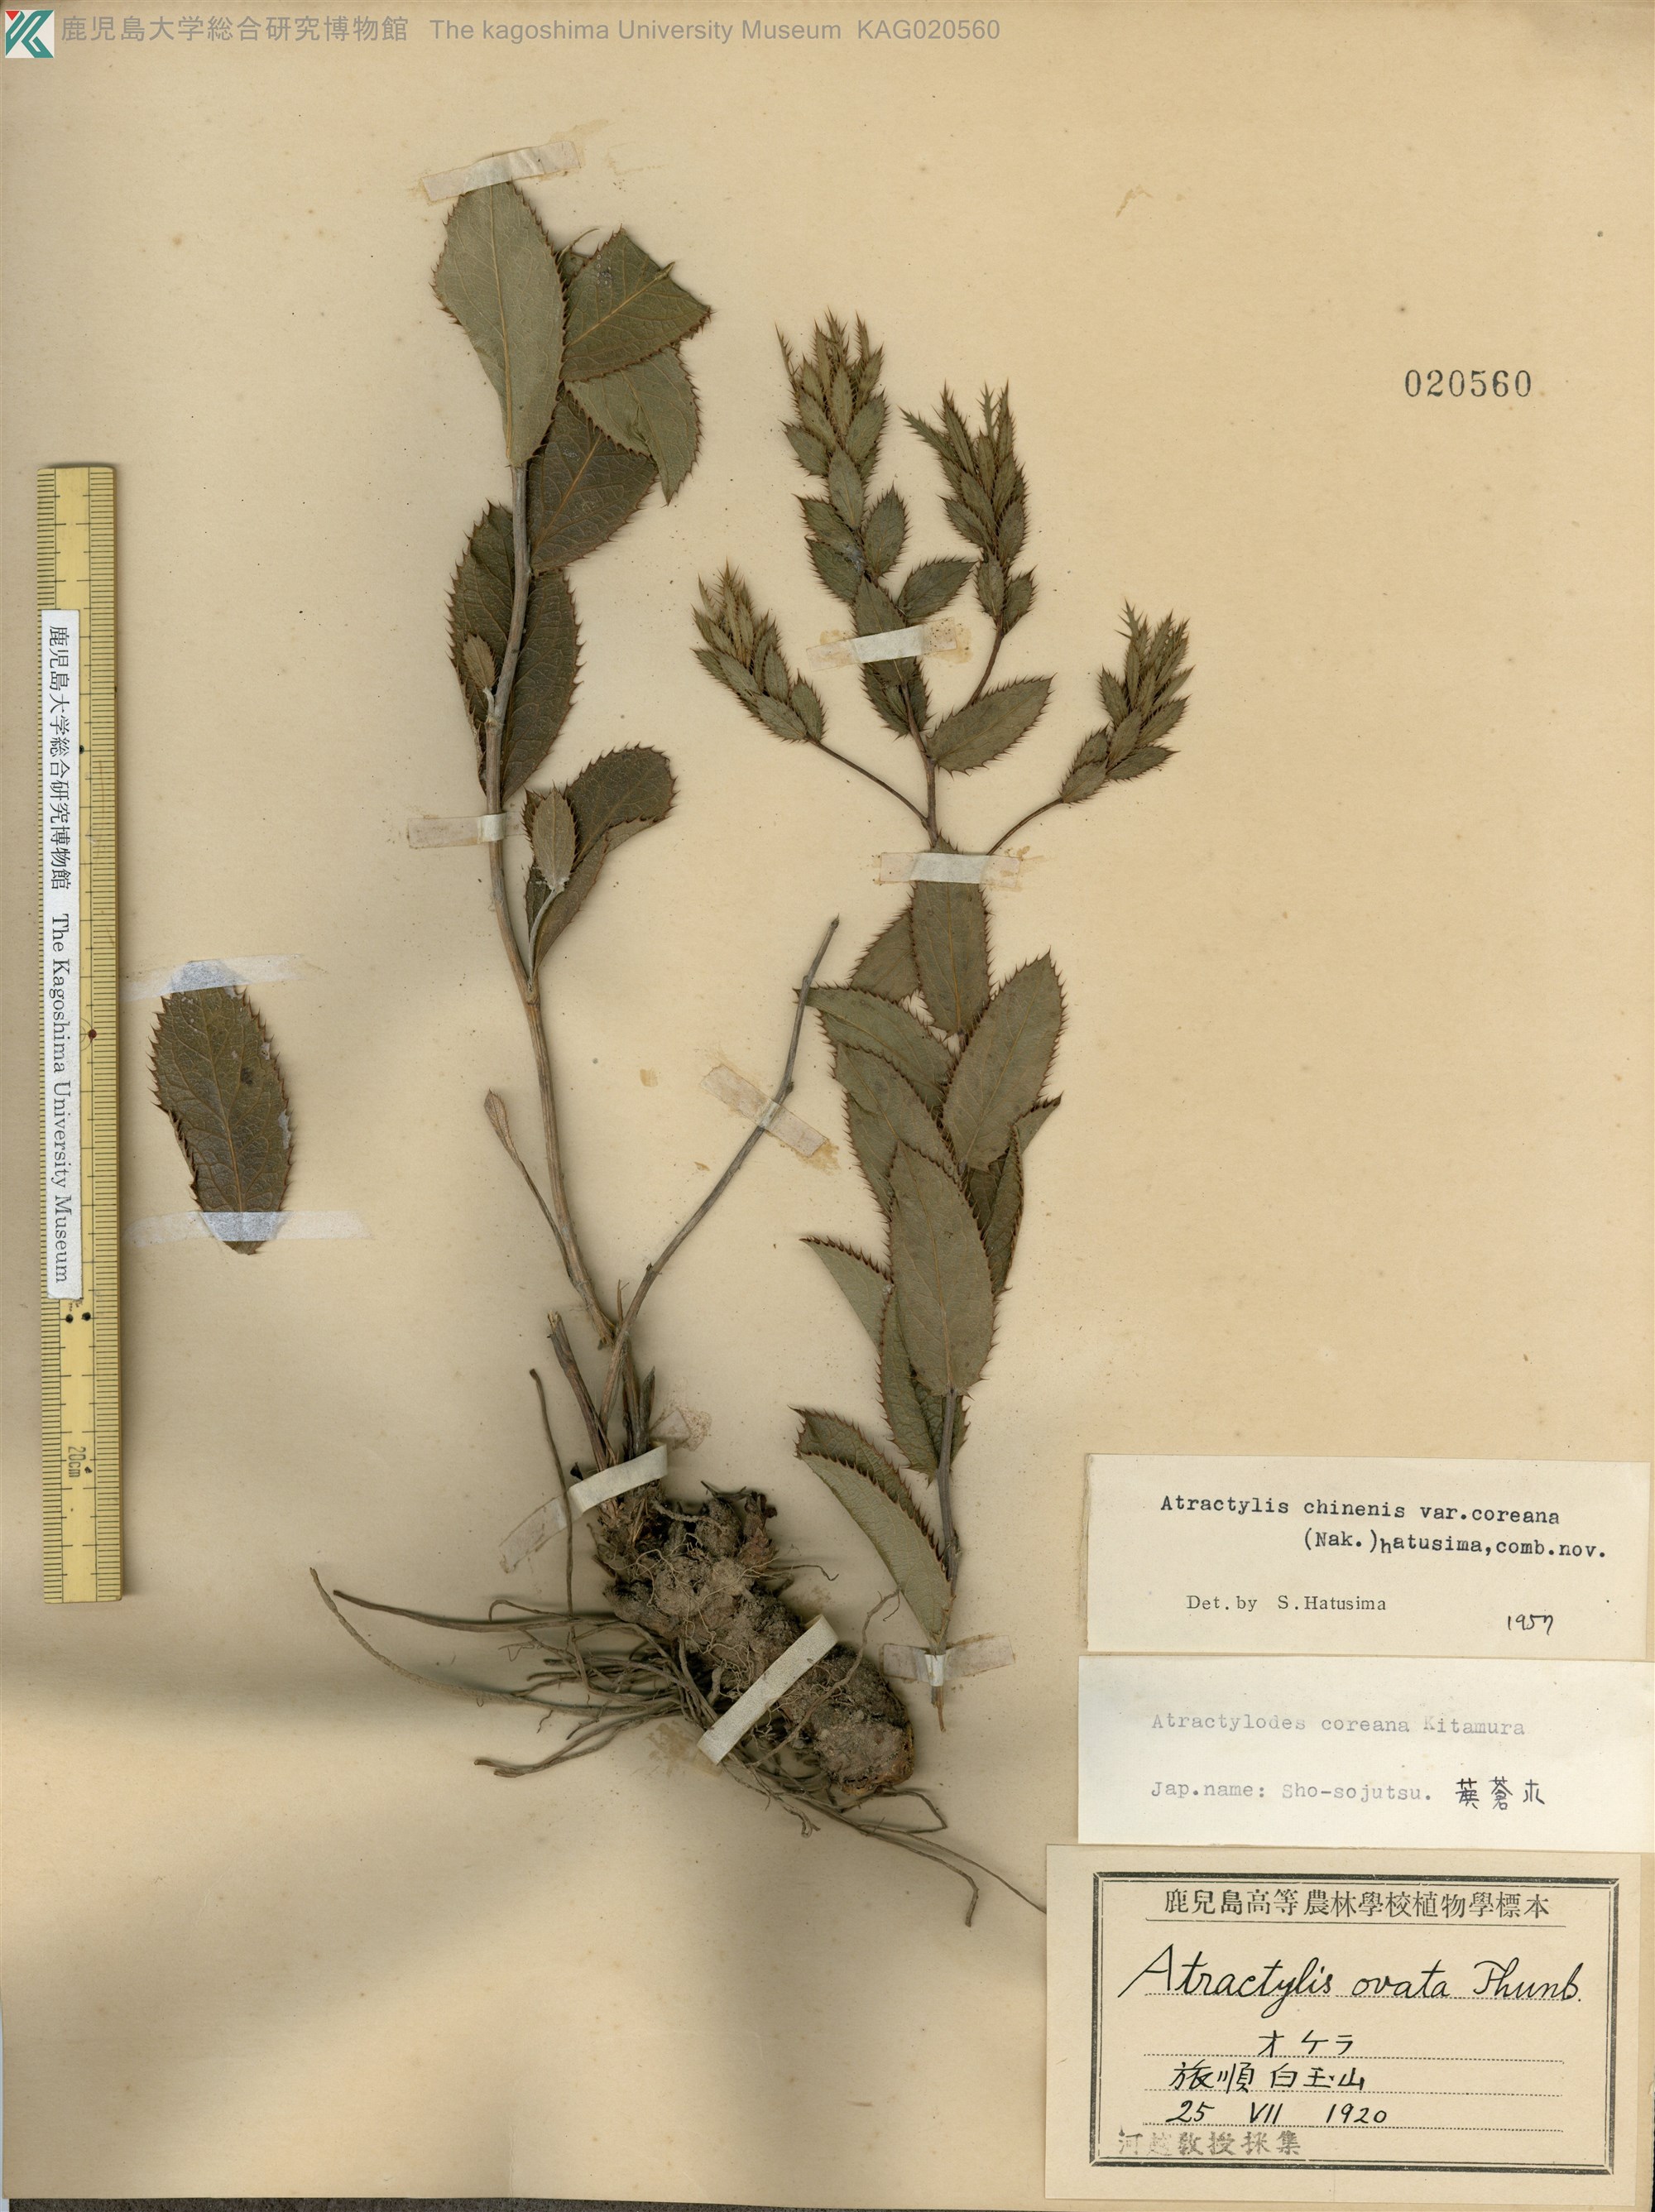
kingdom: Plantae
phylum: Tracheophyta
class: Magnoliopsida
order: Asterales
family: Asteraceae
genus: Atractylodes
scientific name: Atractylodes
